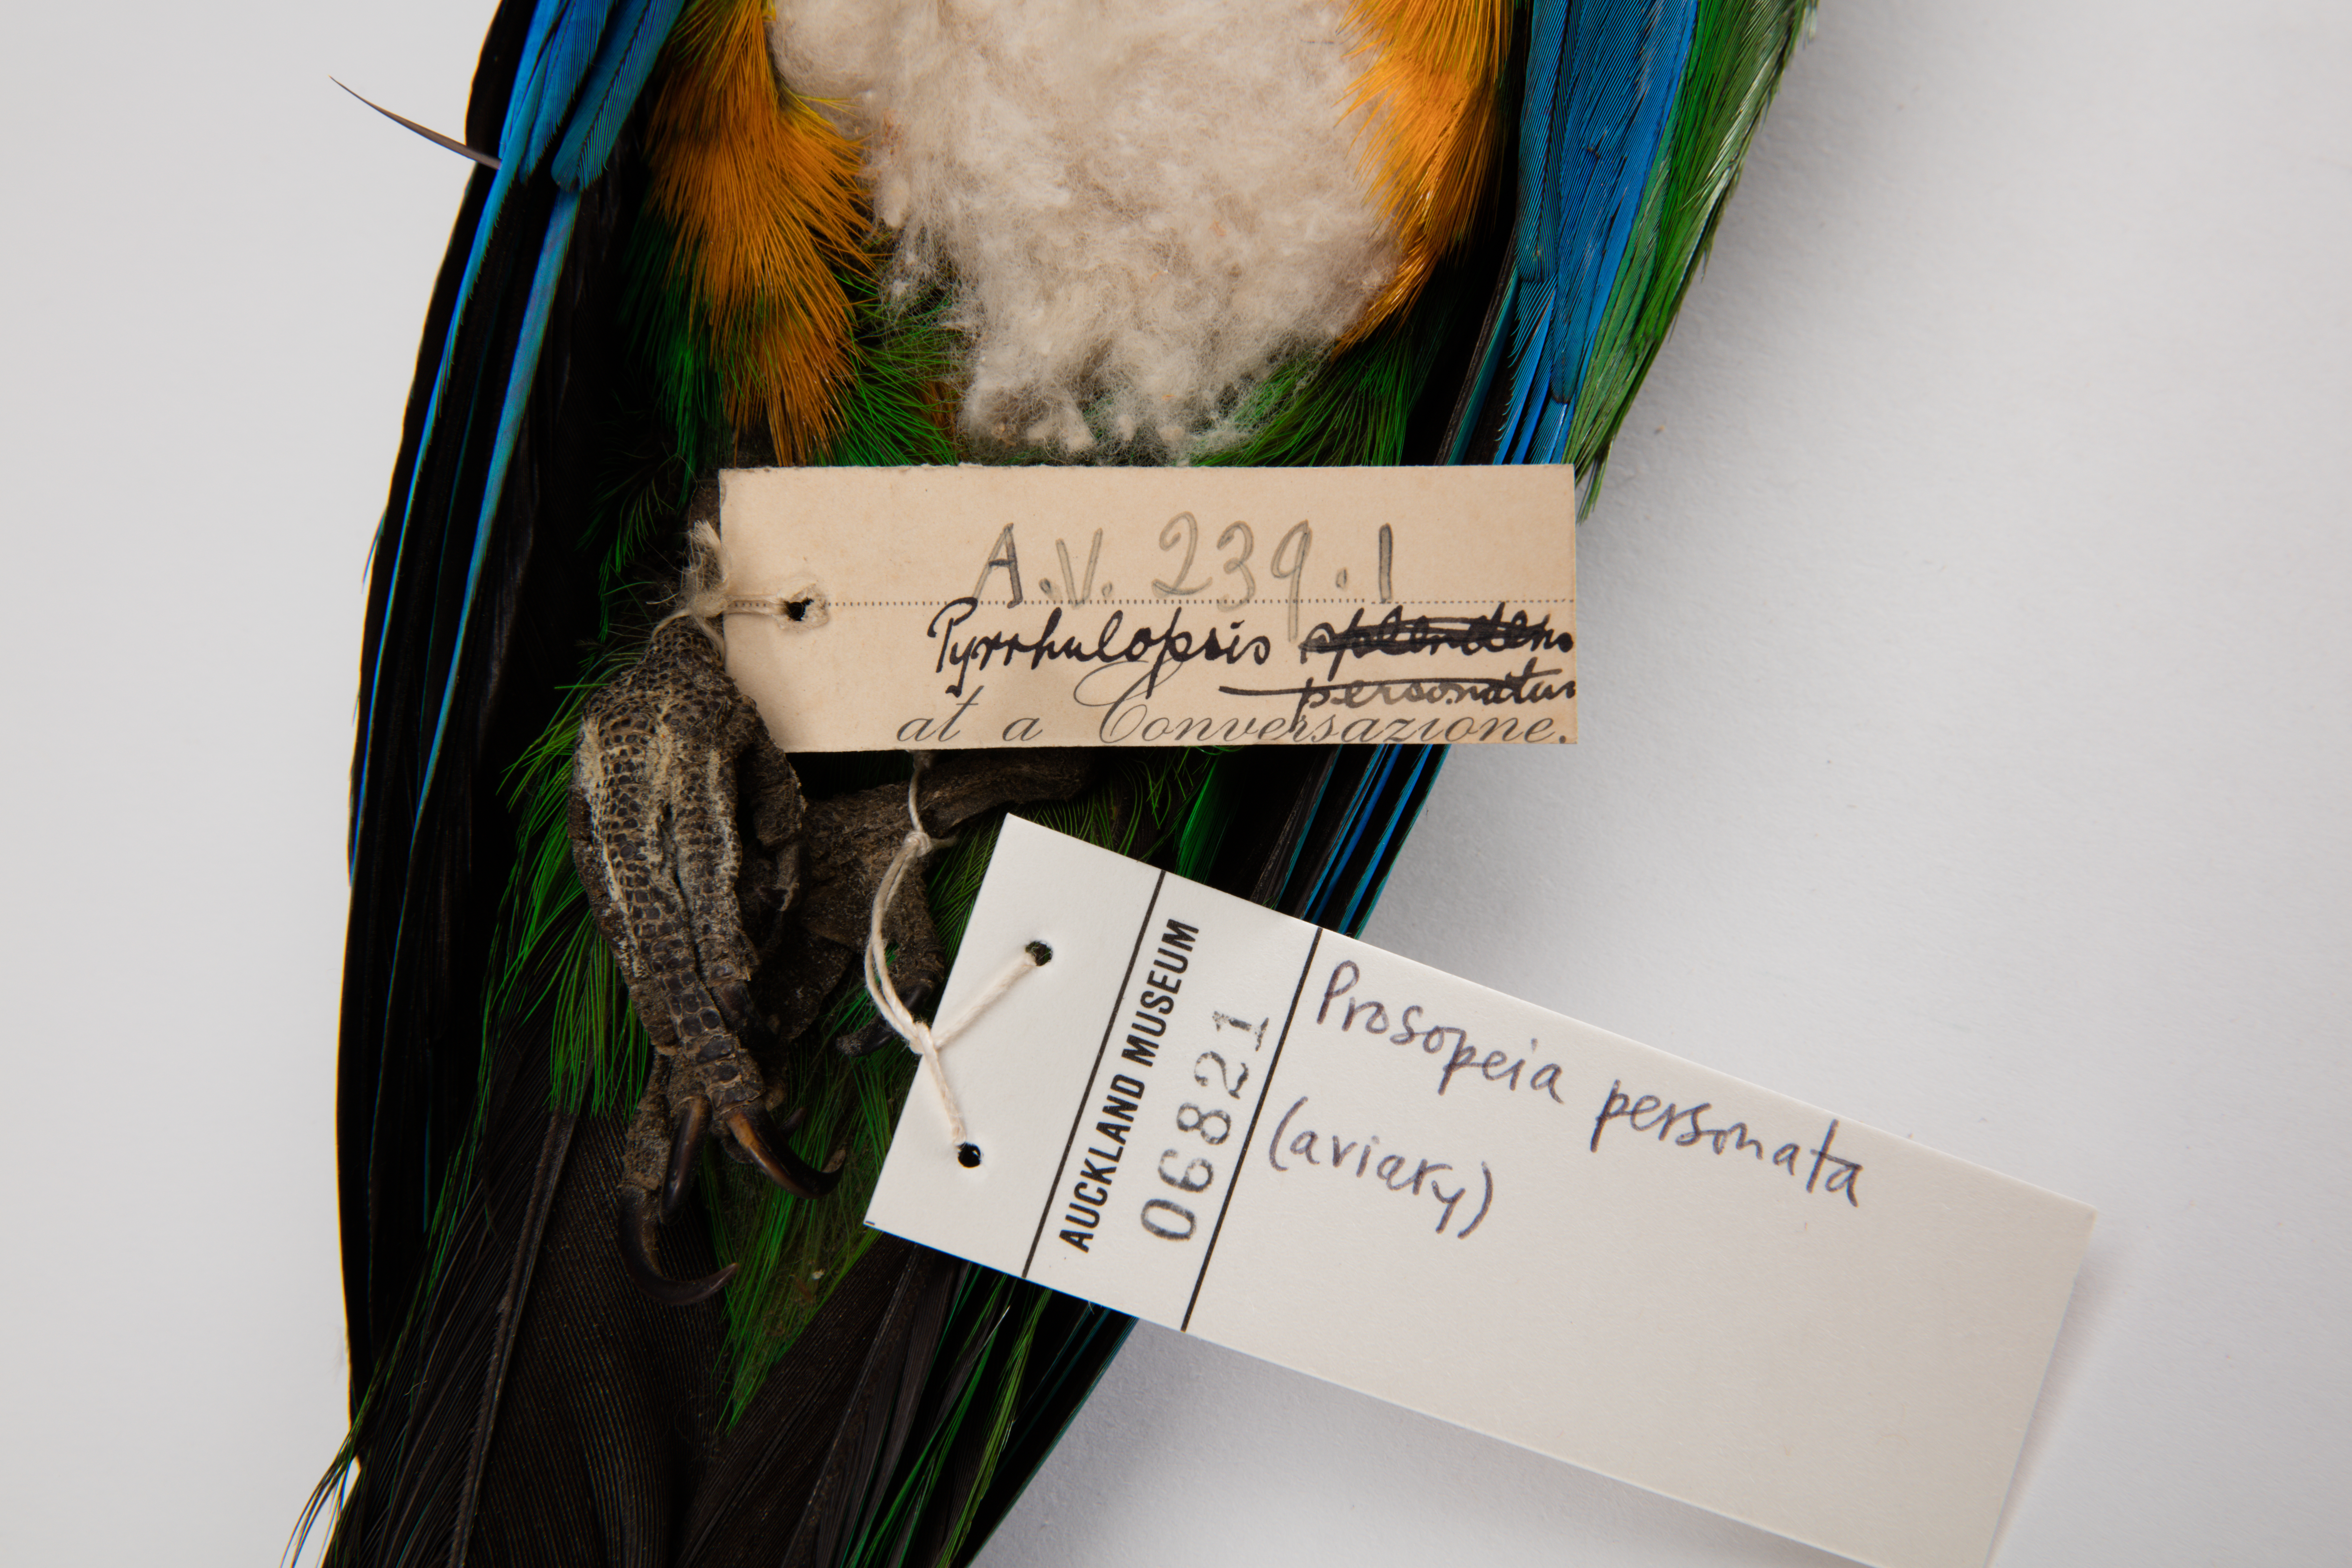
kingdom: Animalia
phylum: Chordata
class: Aves
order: Psittaciformes
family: Psittacidae
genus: Prosopeia
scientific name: Prosopeia personata
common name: Masked shining parrot
